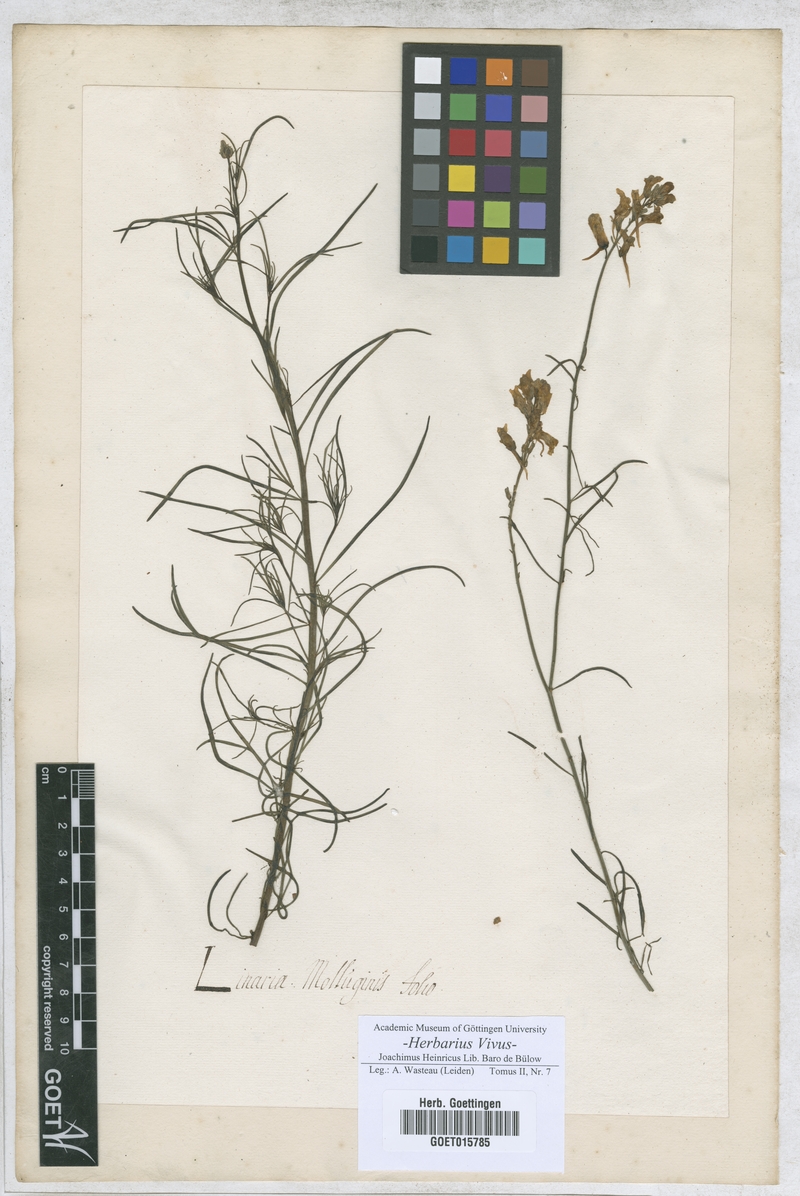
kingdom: Plantae
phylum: Tracheophyta
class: Magnoliopsida
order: Lamiales
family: Plantaginaceae
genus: Linaria
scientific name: Linaria
